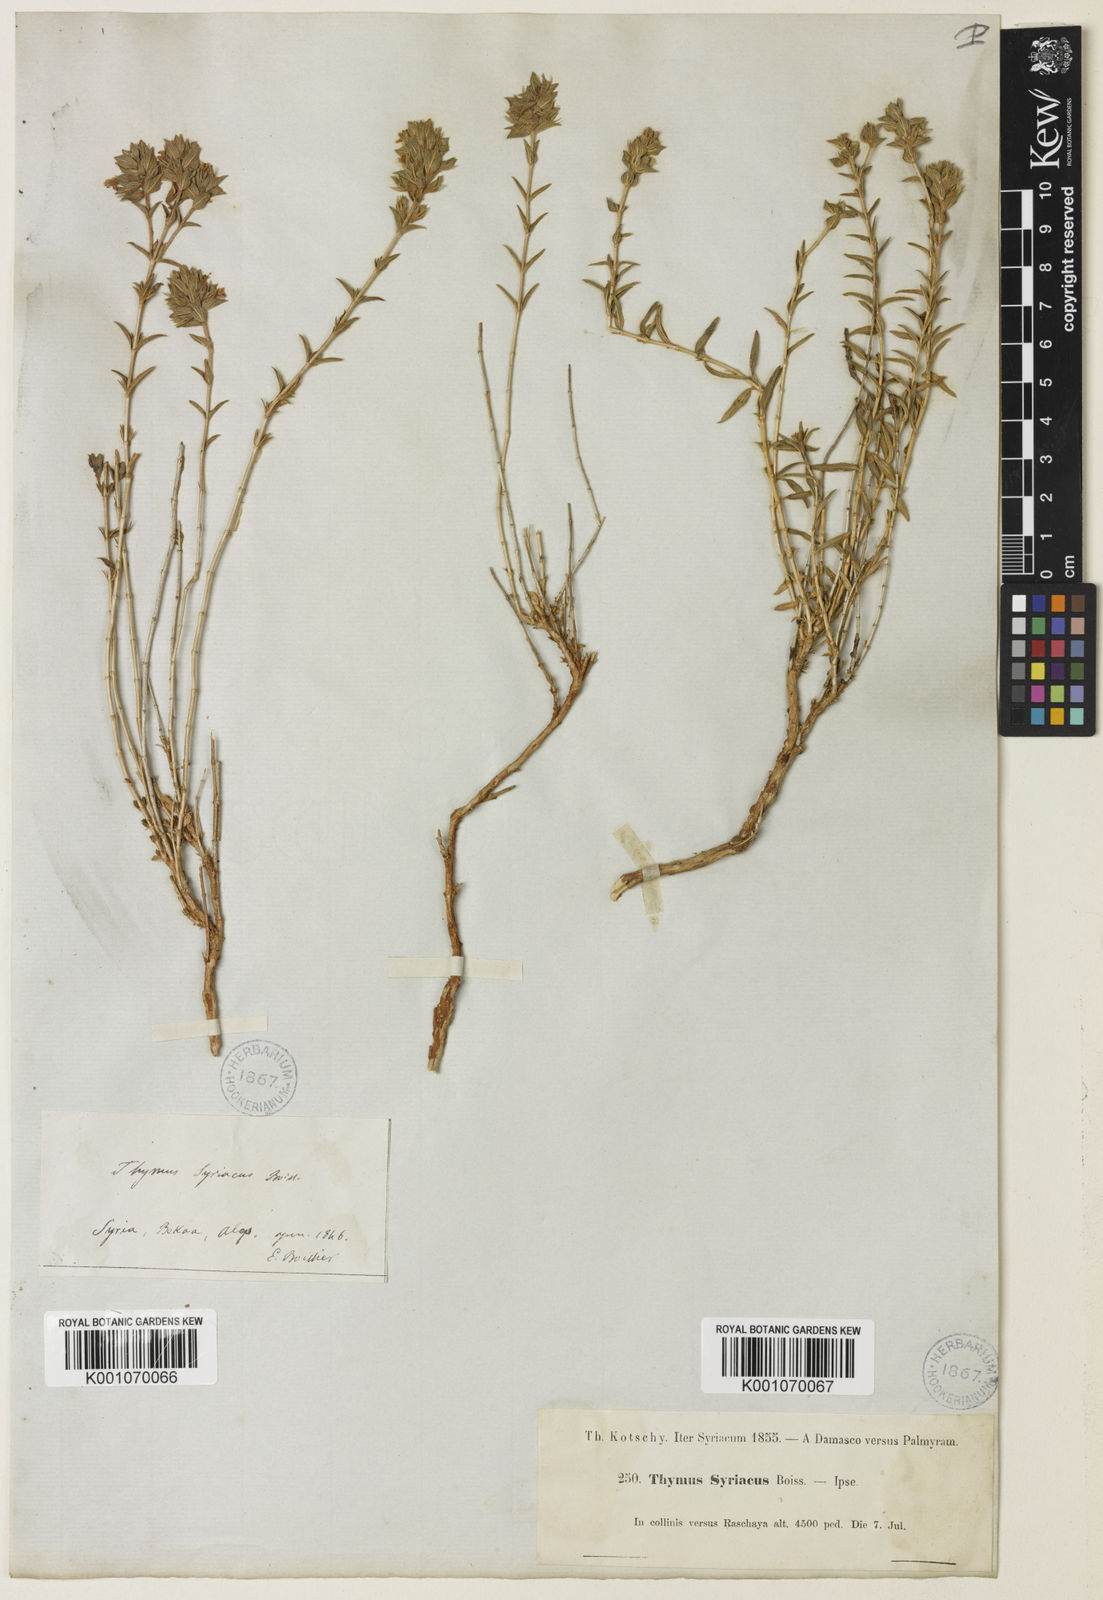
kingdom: Plantae
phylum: Tracheophyta
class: Magnoliopsida
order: Lamiales
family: Lamiaceae
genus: Thymus
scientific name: Thymus syriacus
